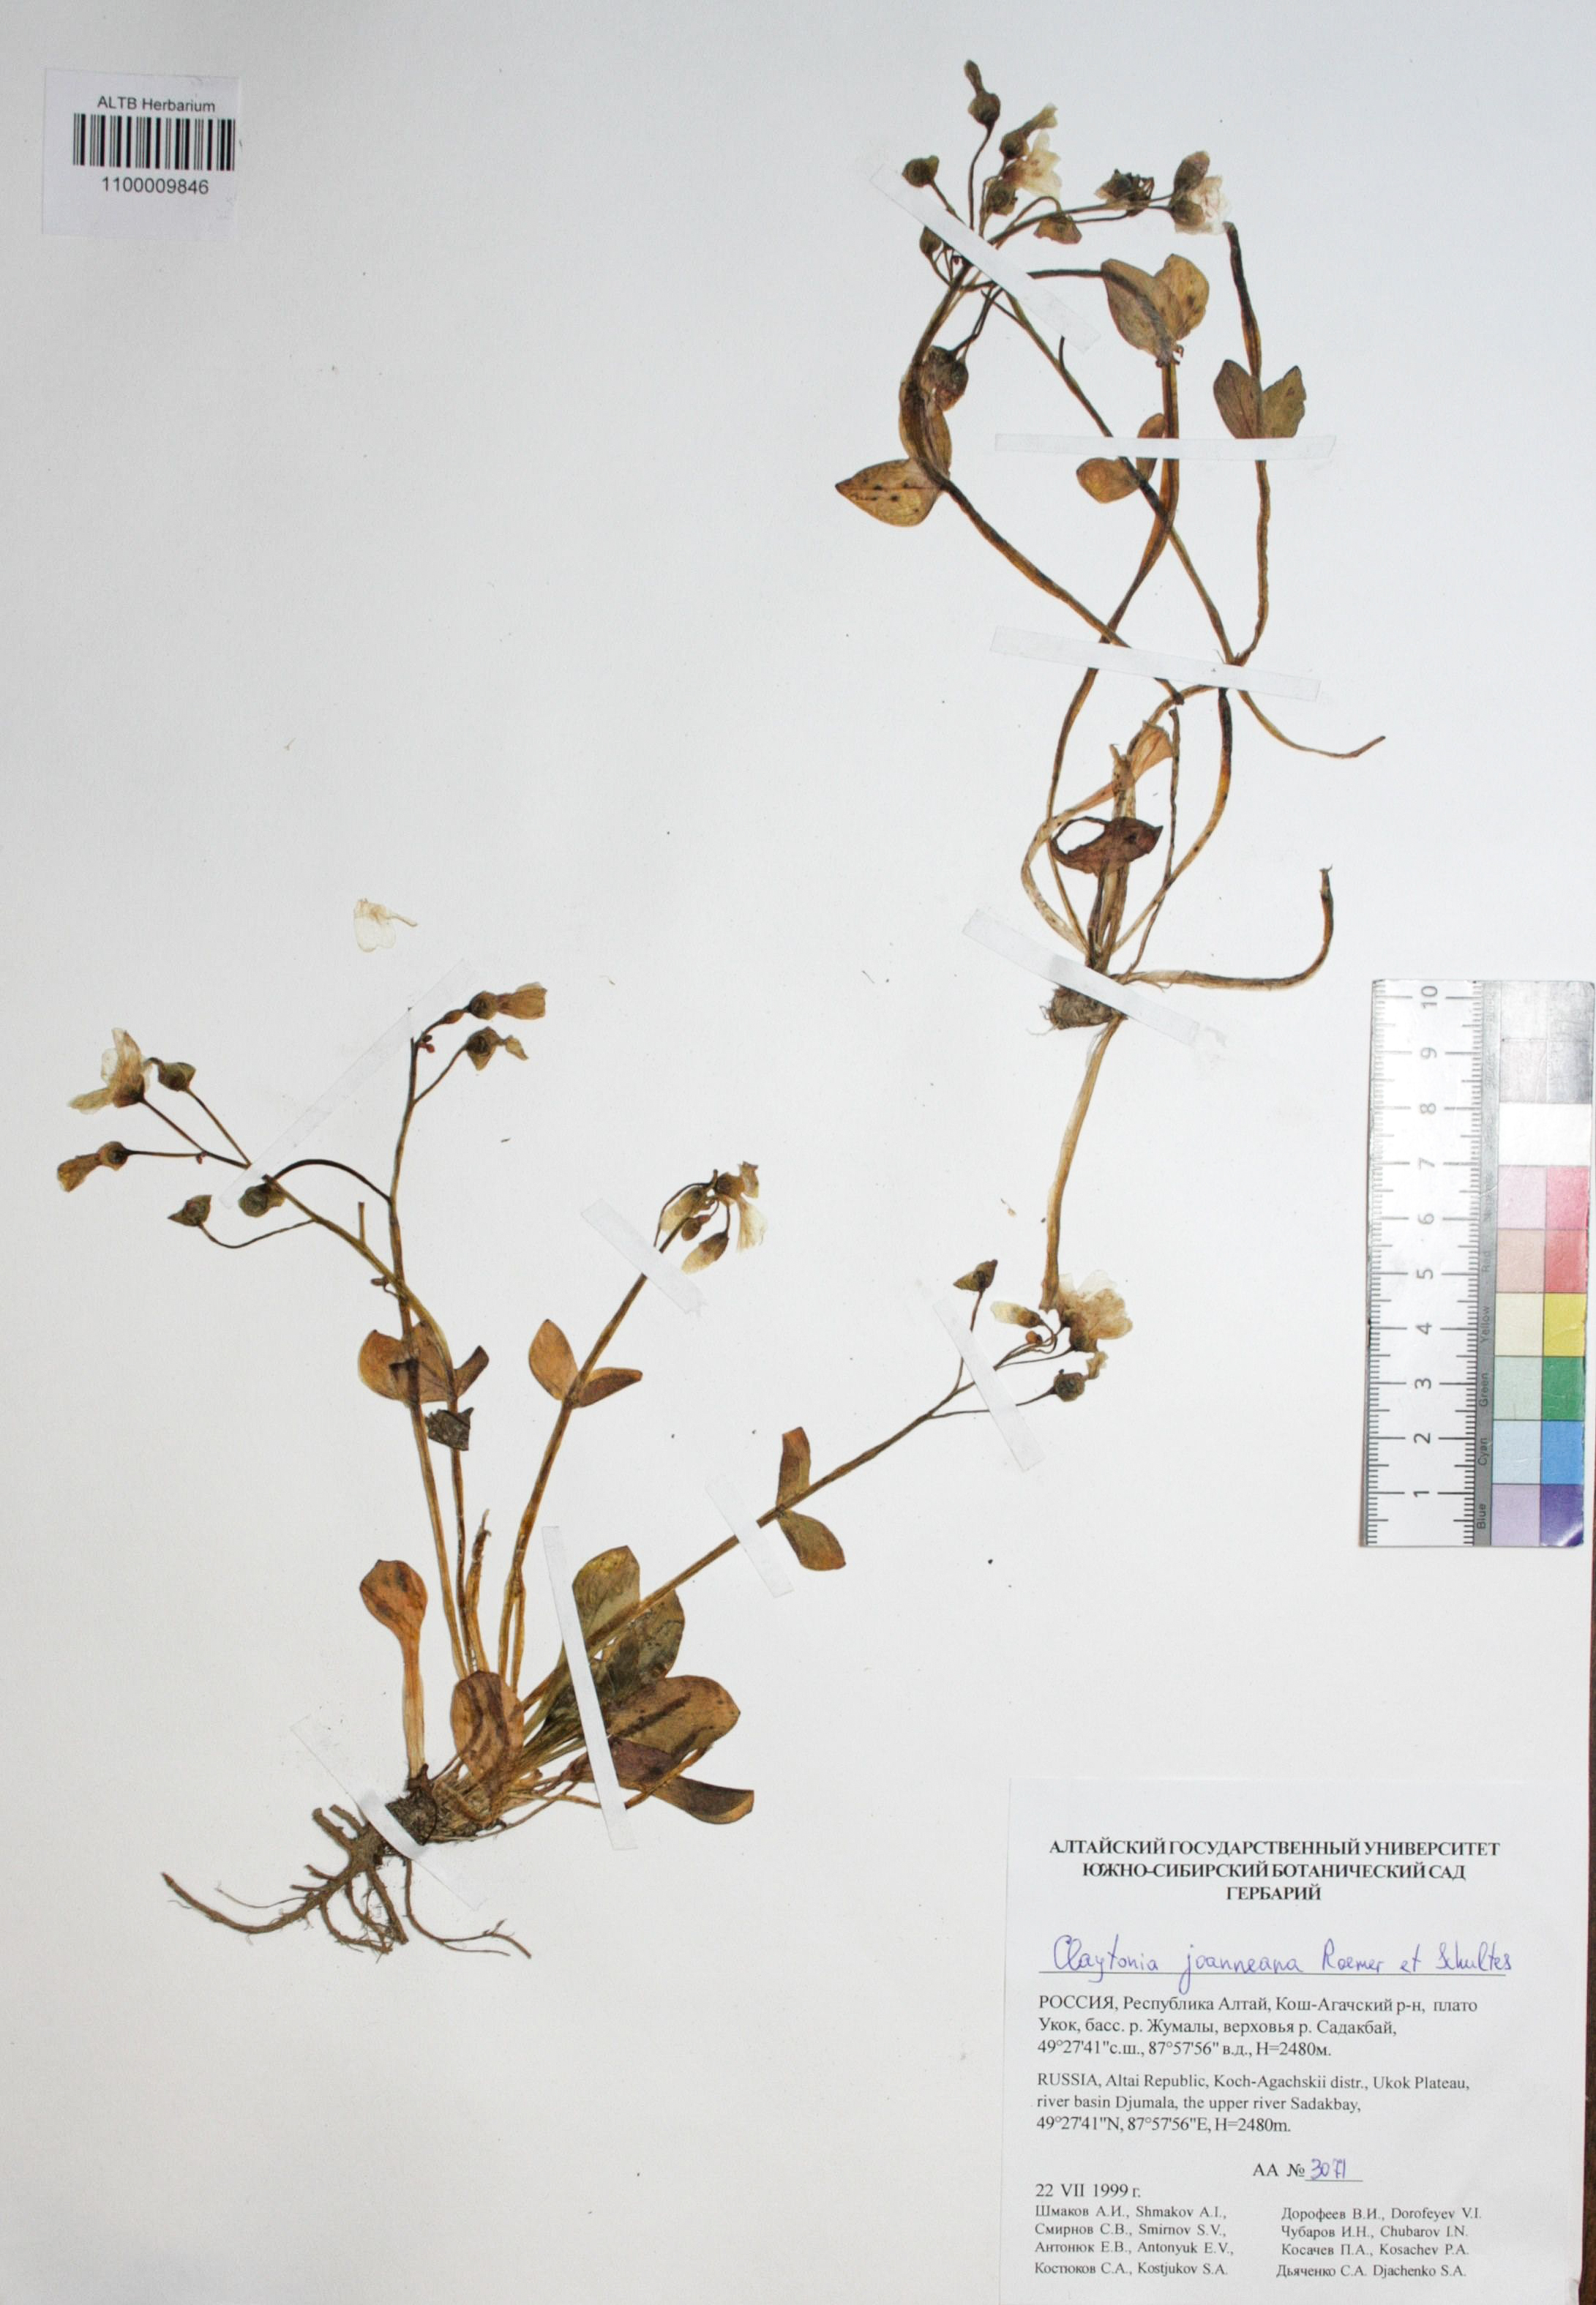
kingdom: Plantae
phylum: Tracheophyta
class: Magnoliopsida
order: Caryophyllales
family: Montiaceae
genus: Claytonia
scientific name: Claytonia joanneana
